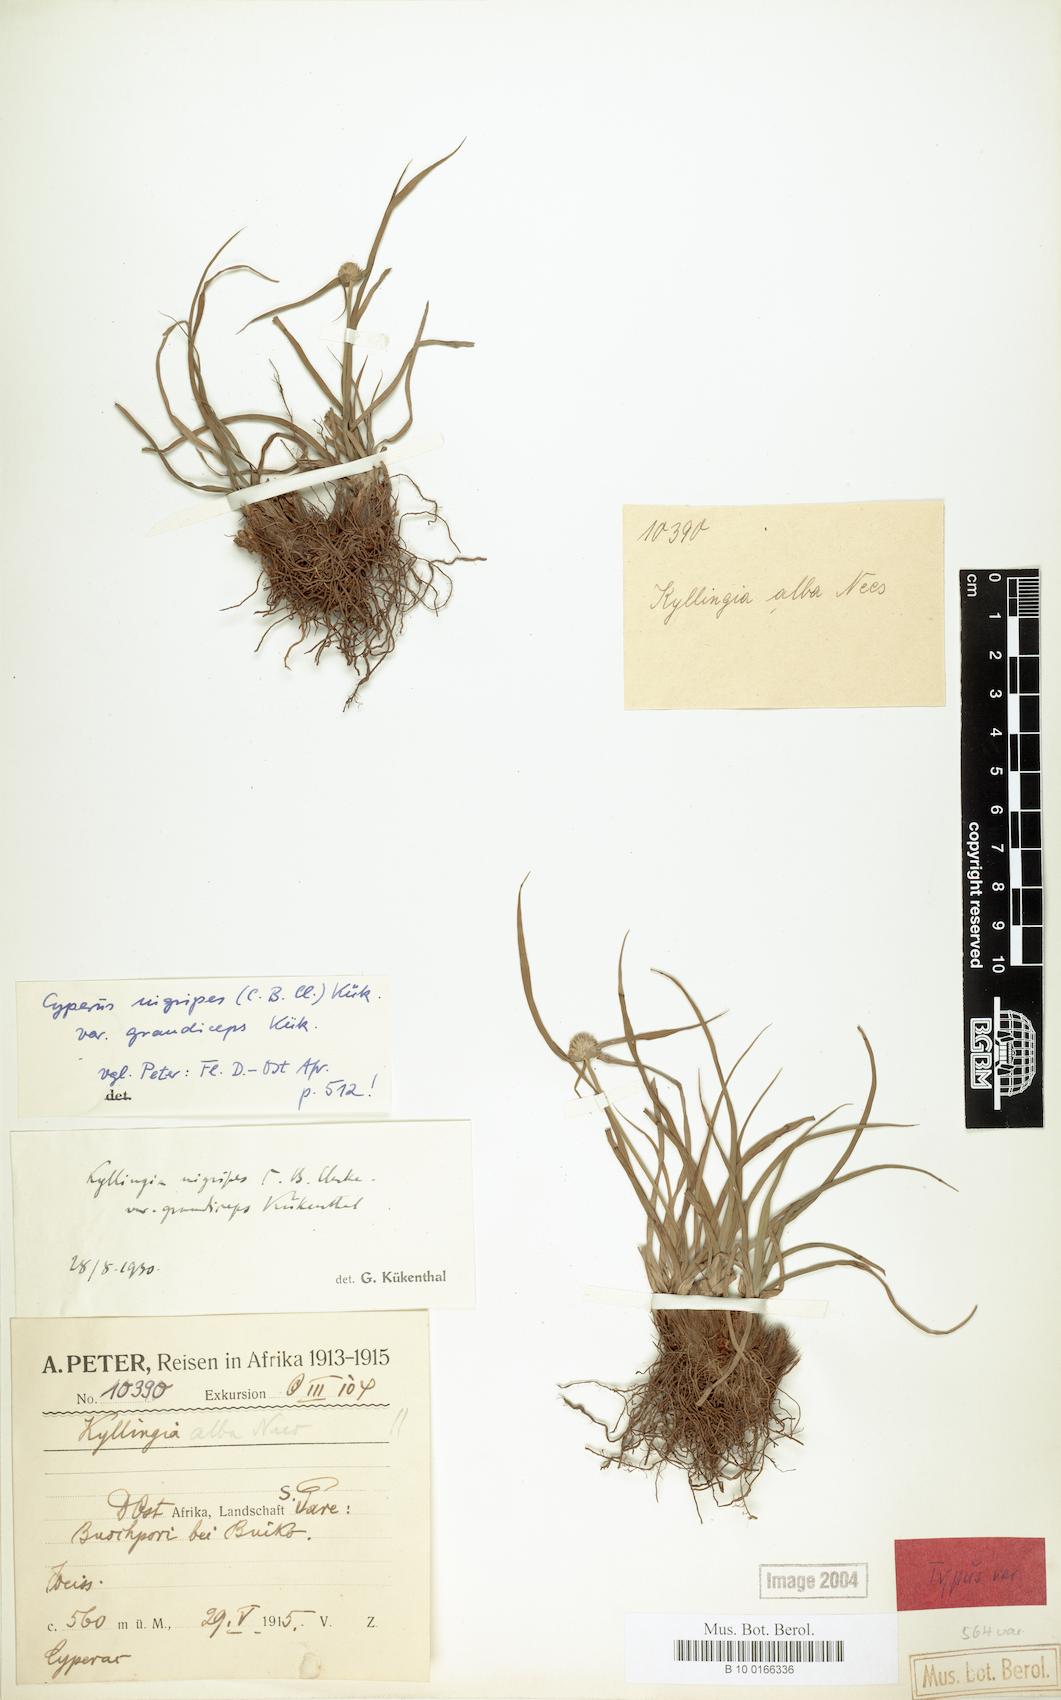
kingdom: Plantae
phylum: Tracheophyta
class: Liliopsida
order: Poales
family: Cyperaceae
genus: Cyperus
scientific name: Cyperus alatus
